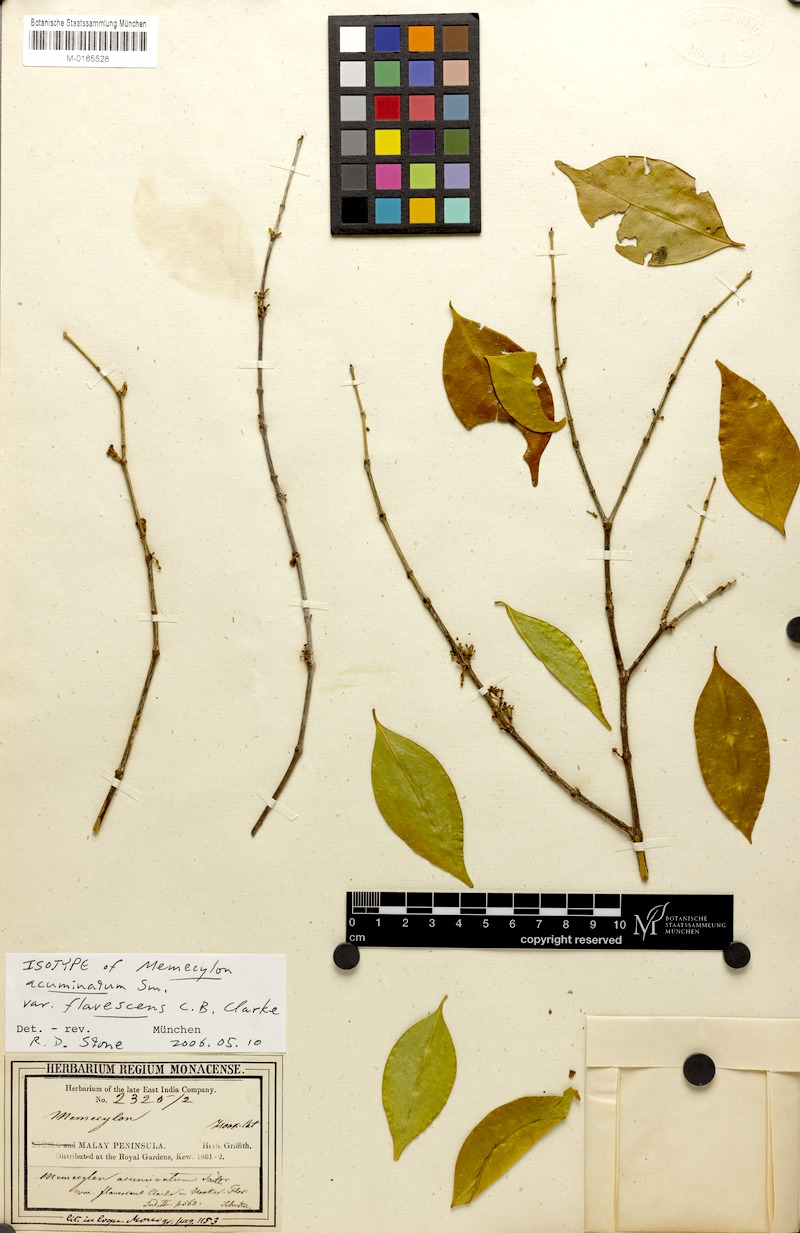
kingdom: Plantae
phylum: Tracheophyta
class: Magnoliopsida
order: Myrtales
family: Melastomataceae
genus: Memecylon
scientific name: Memecylon acuminatum
